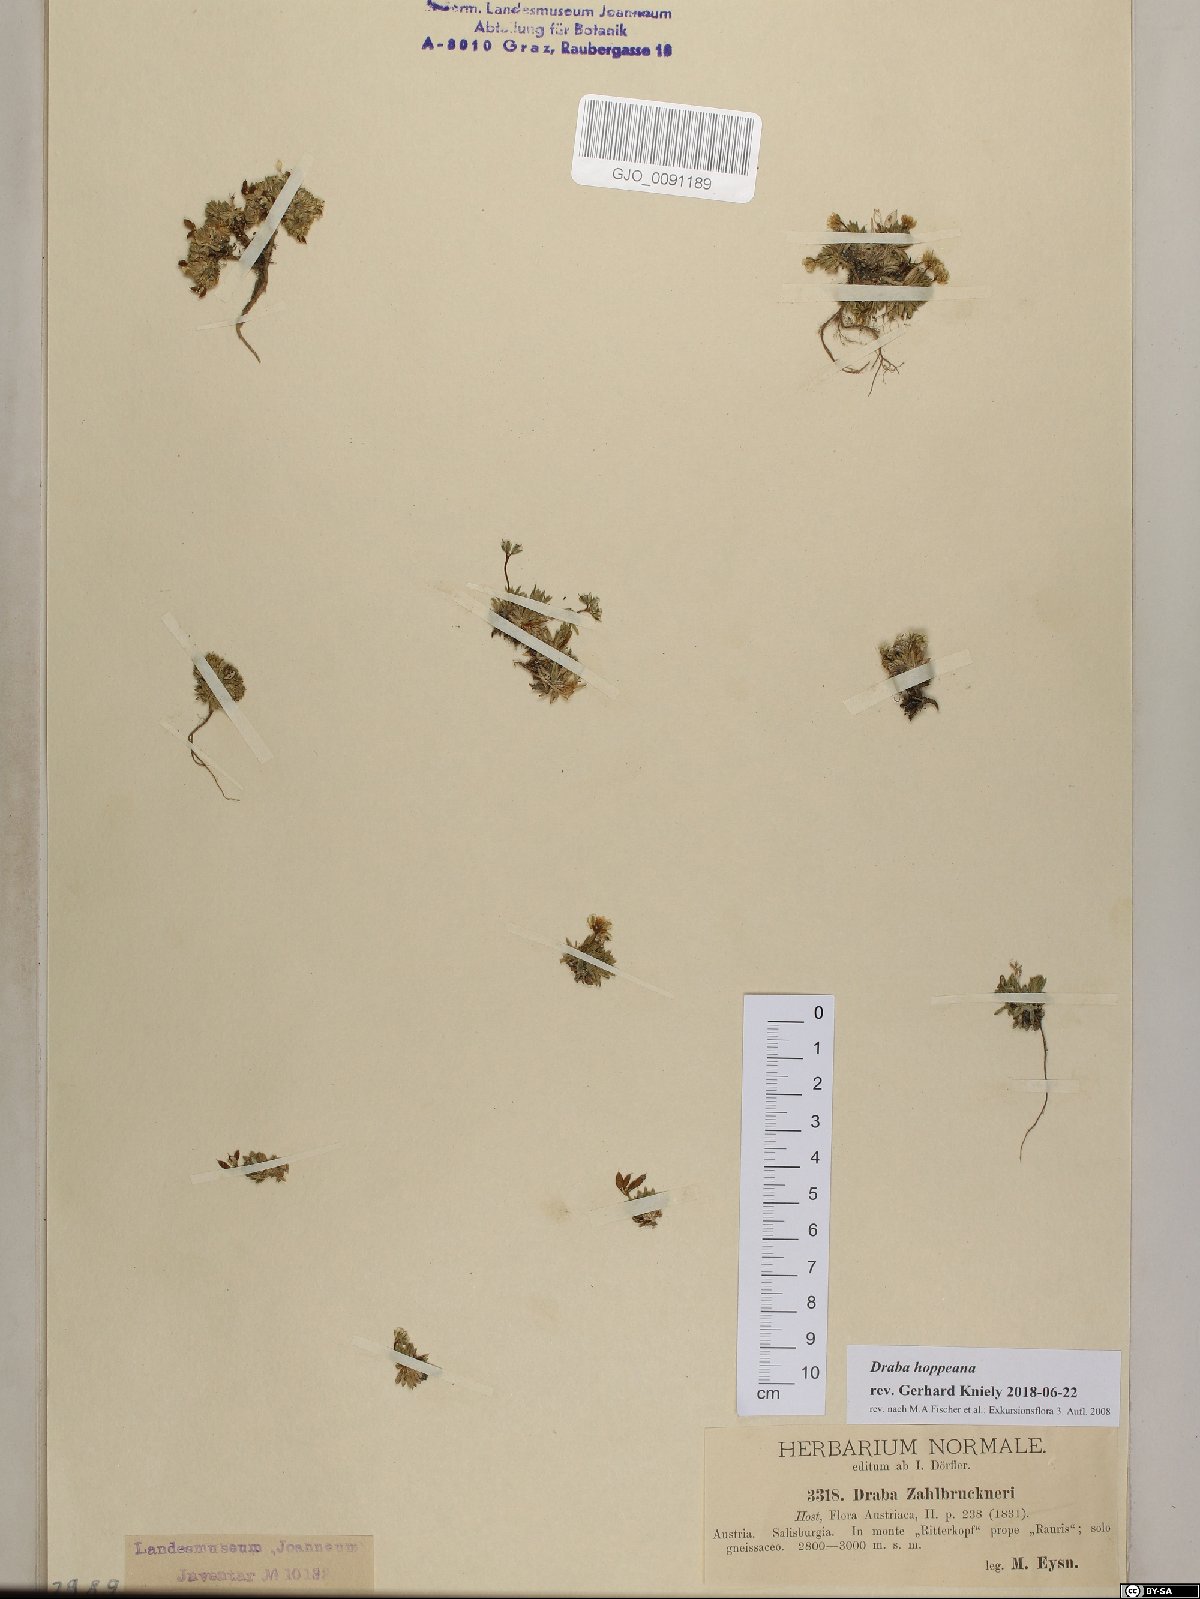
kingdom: Plantae
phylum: Tracheophyta
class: Magnoliopsida
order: Brassicales
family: Brassicaceae
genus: Draba
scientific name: Draba hoppeana
